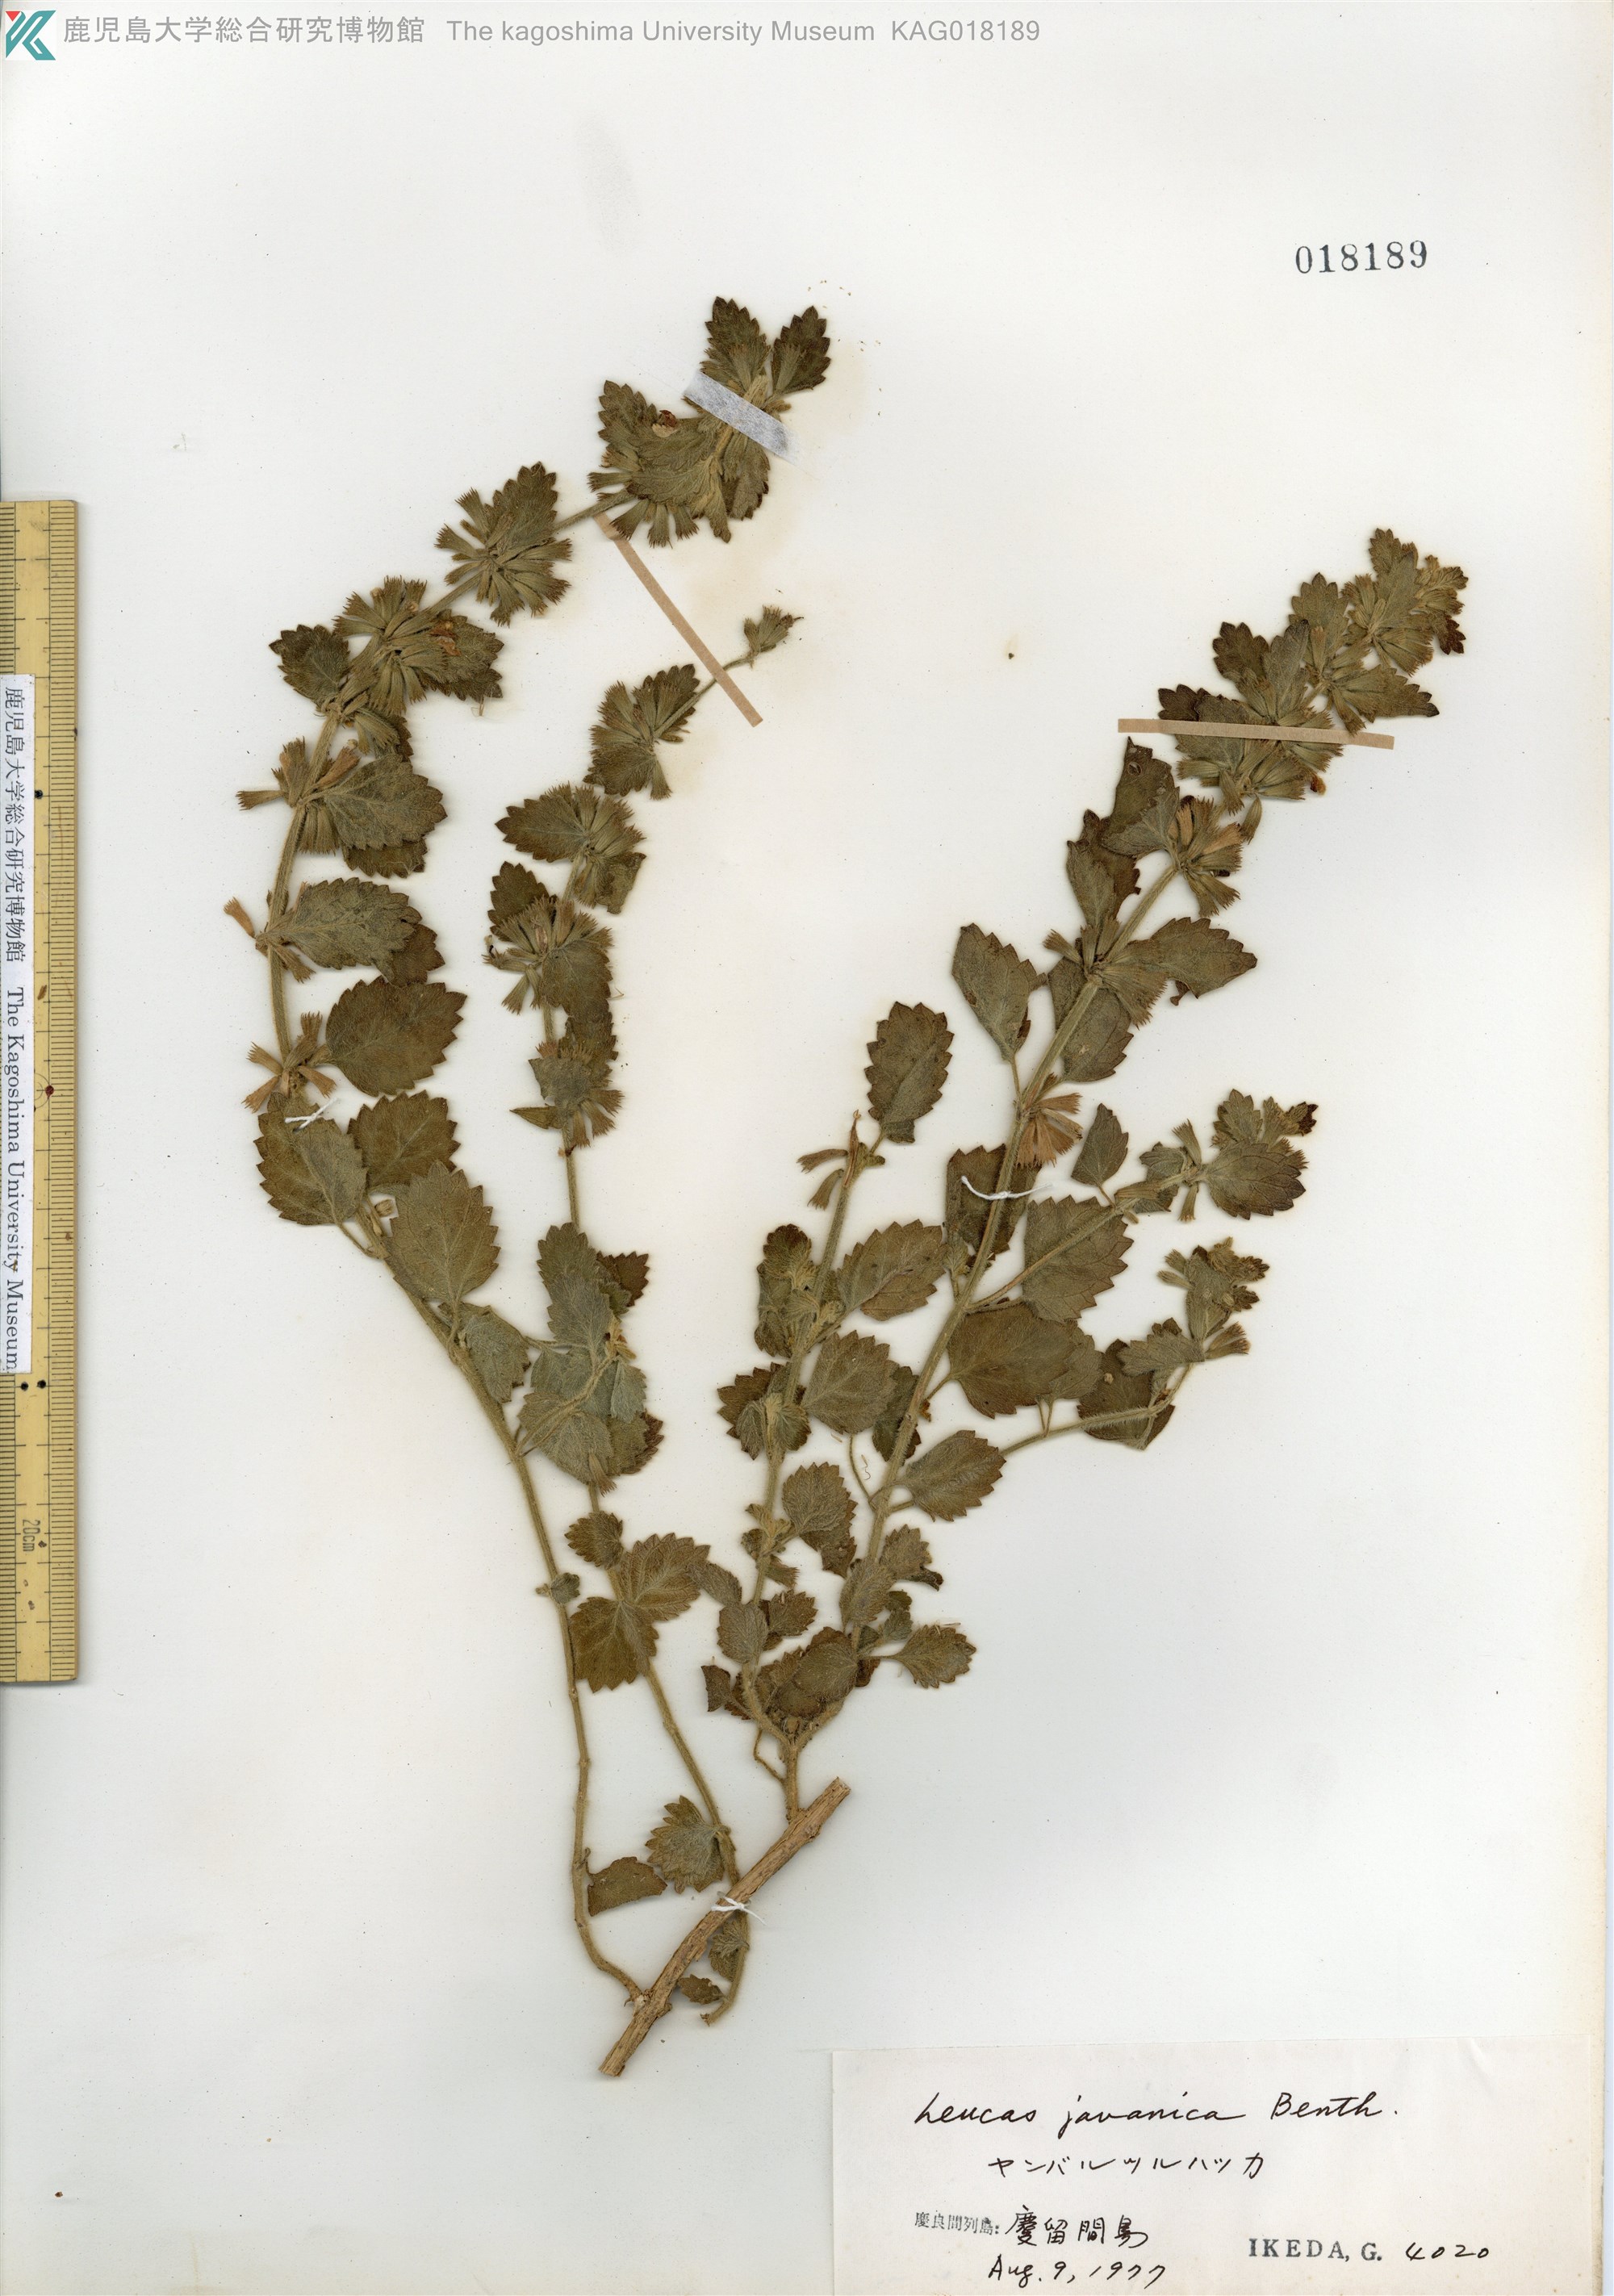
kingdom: Plantae
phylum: Tracheophyta
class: Magnoliopsida
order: Lamiales
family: Lamiaceae
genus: Leucas
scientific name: Leucas chinensis
